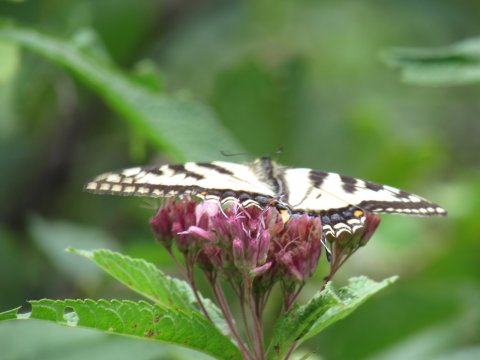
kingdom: Animalia
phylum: Arthropoda
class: Insecta
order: Lepidoptera
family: Papilionidae
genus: Pterourus
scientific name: Pterourus
